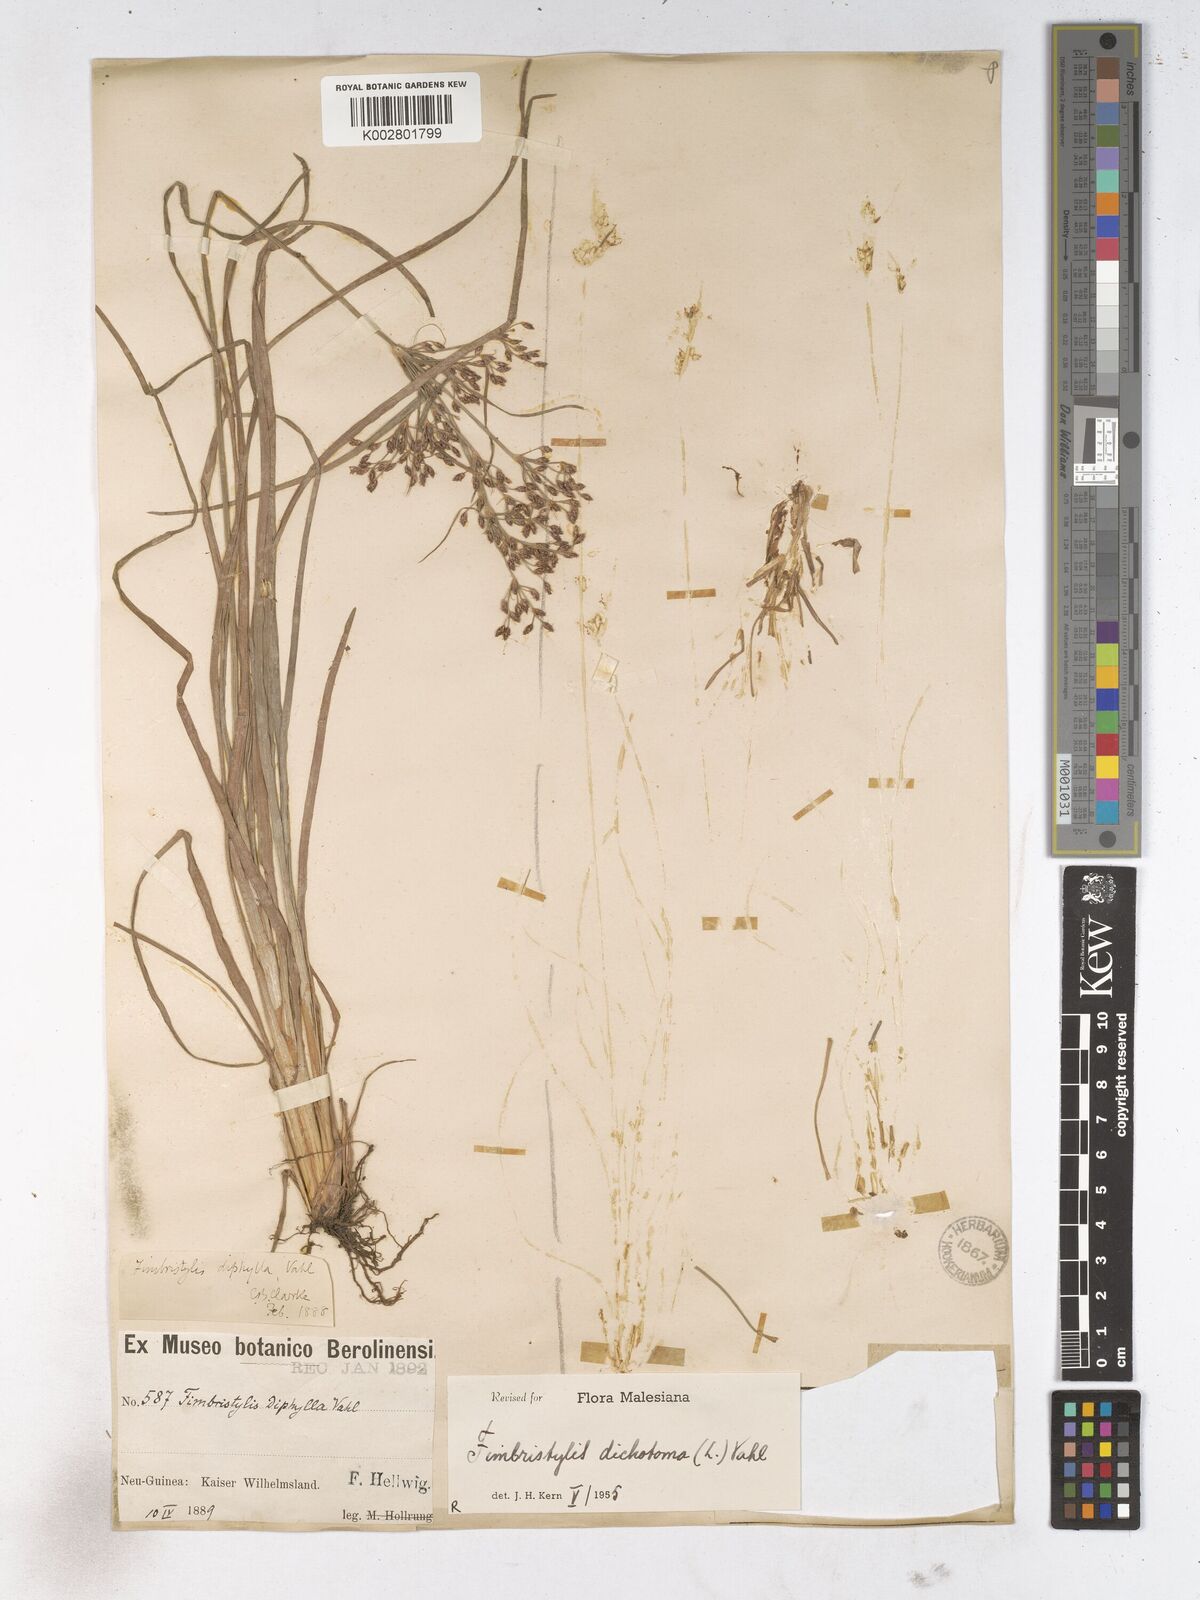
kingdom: Plantae
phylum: Tracheophyta
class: Liliopsida
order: Poales
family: Cyperaceae
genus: Fimbristylis
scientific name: Fimbristylis dichotoma
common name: Forked fimbry
